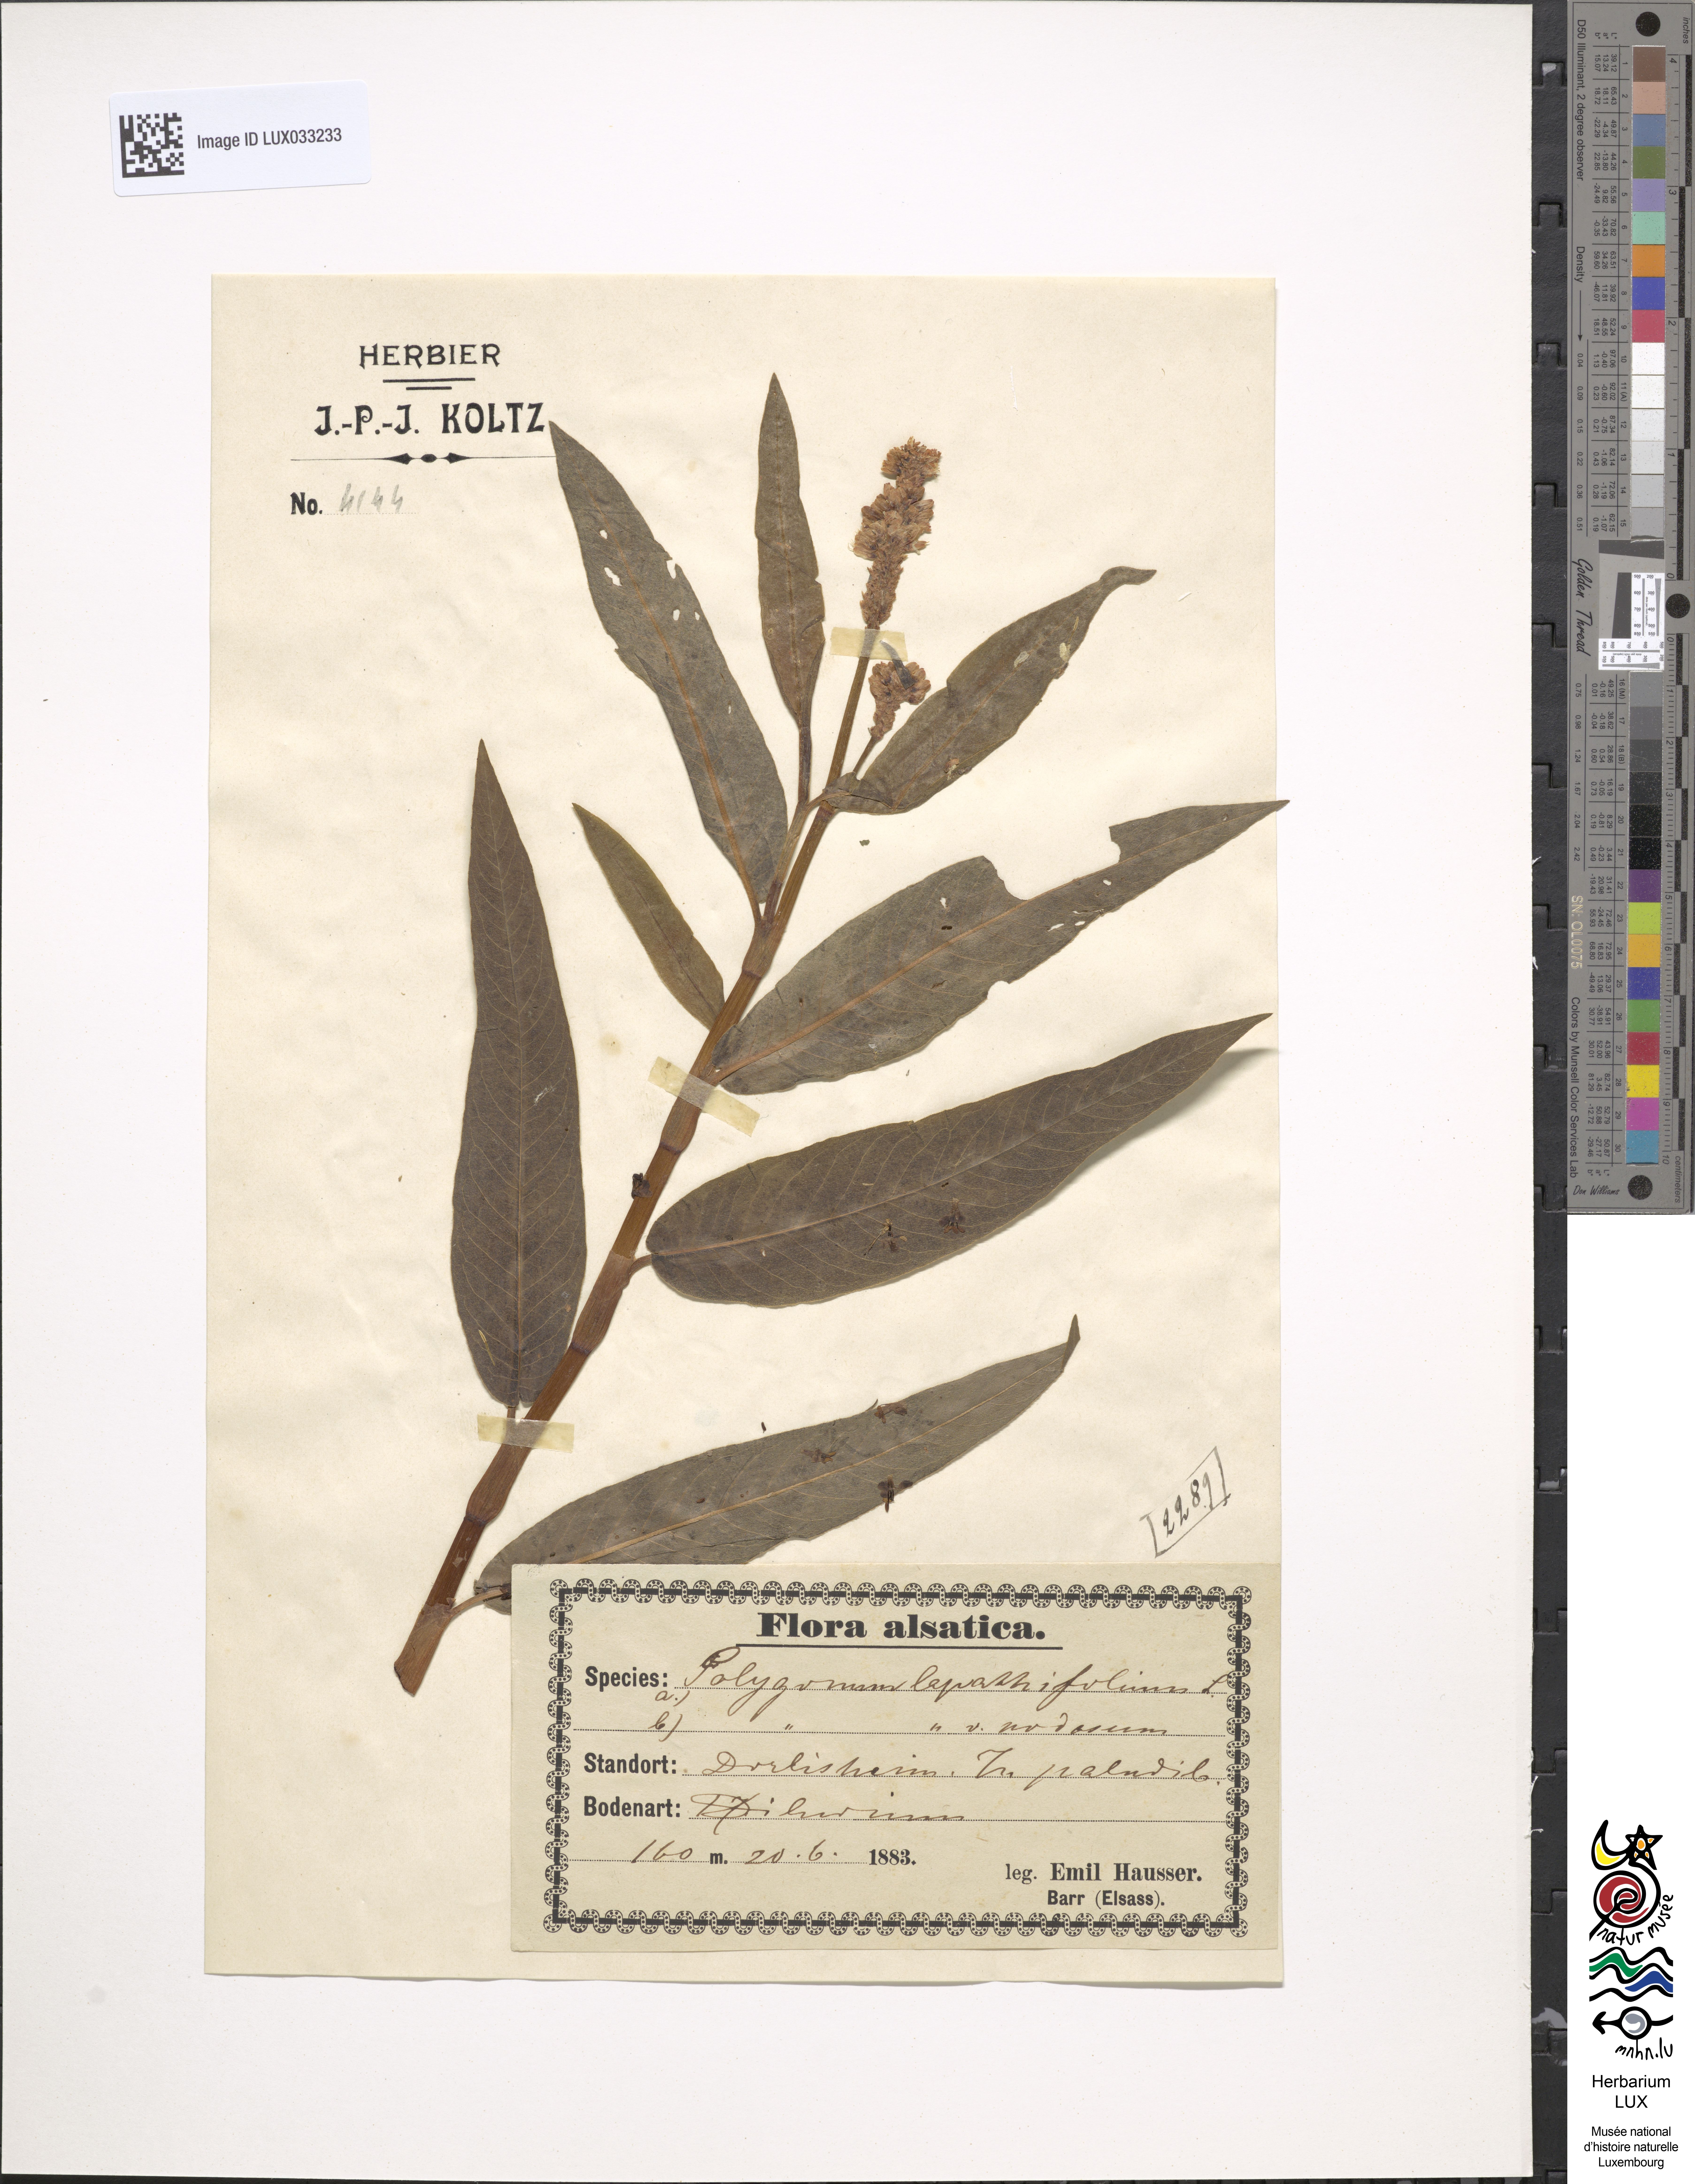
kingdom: Plantae
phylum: Tracheophyta
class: Magnoliopsida
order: Caryophyllales
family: Polygonaceae
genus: Persicaria
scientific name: Persicaria lapathifolia
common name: Curlytop knotweed
